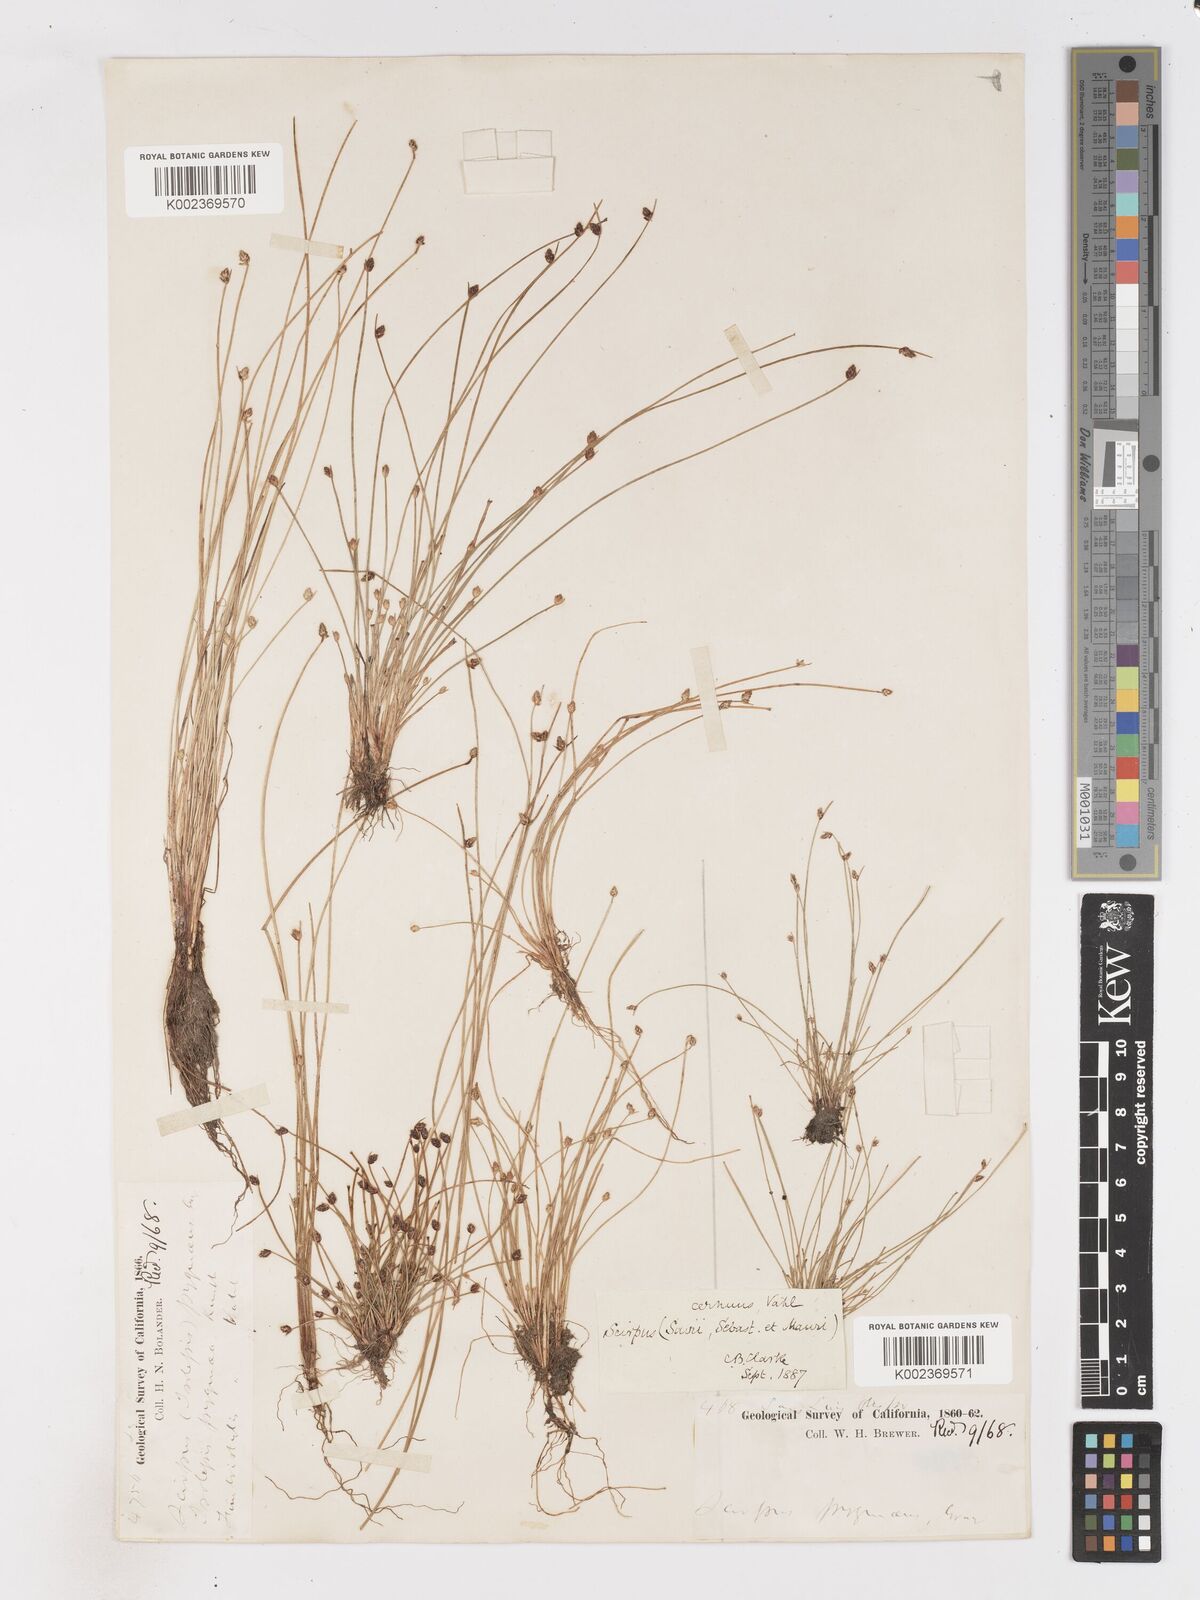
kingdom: Plantae
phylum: Tracheophyta
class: Liliopsida
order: Poales
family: Cyperaceae
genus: Isolepis
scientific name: Isolepis cernua
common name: Slender club-rush
